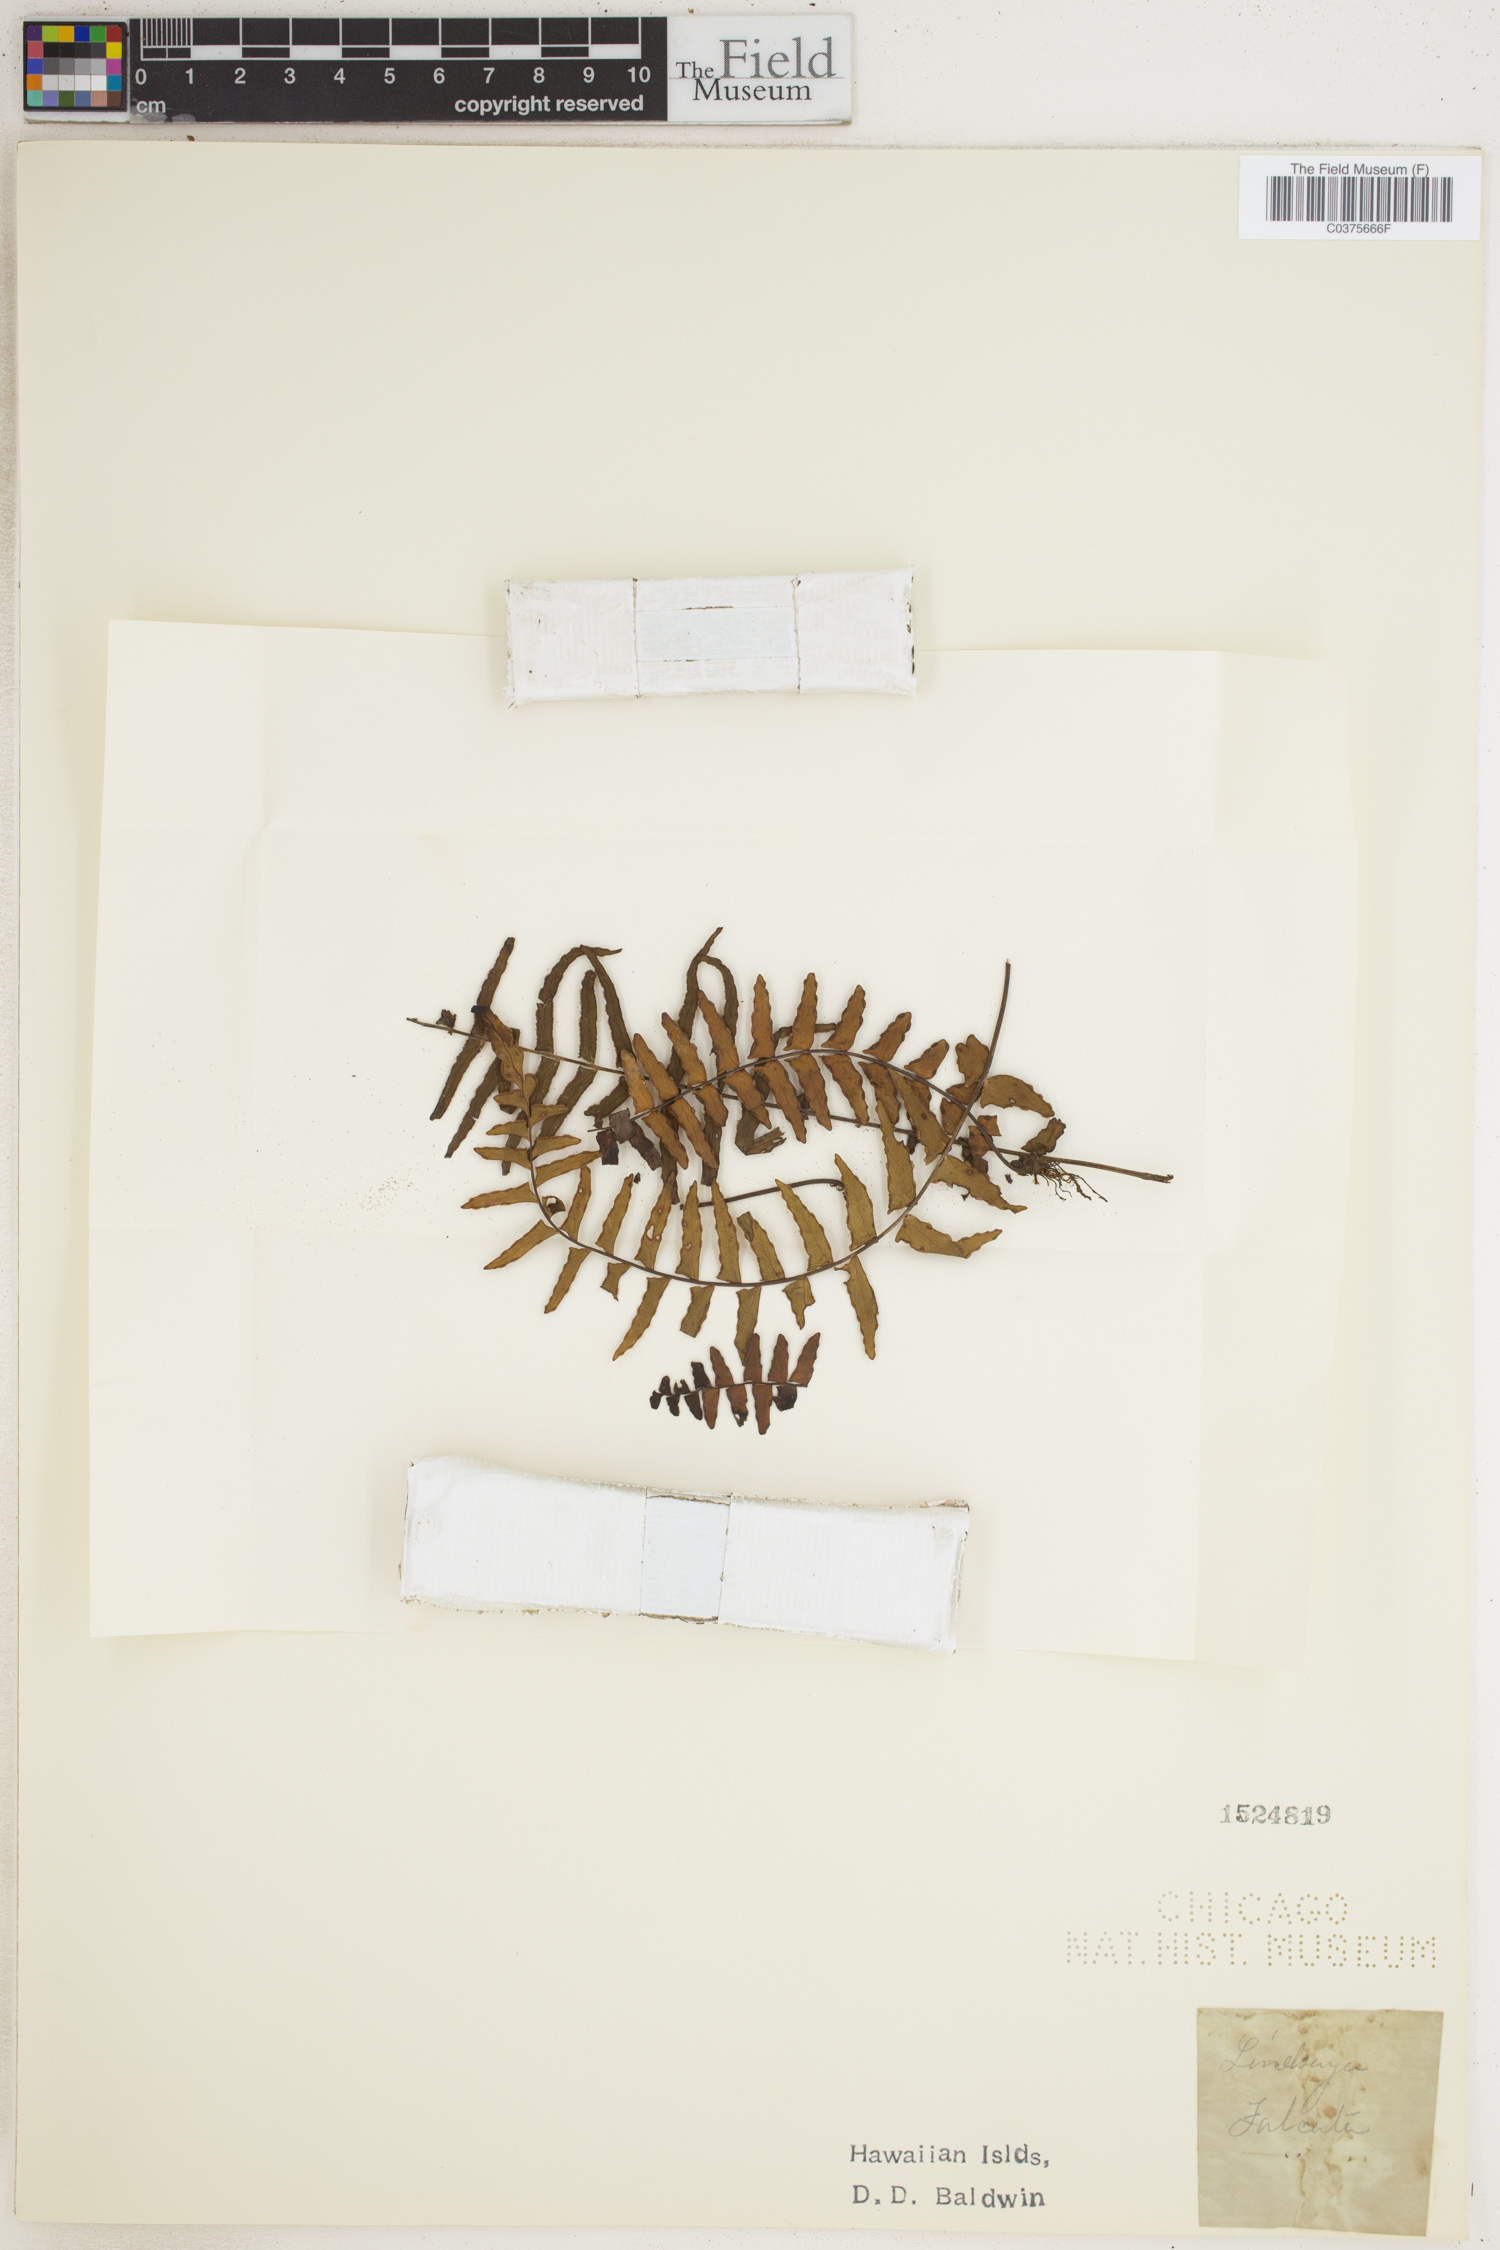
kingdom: Plantae
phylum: Tracheophyta
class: Polypodiopsida
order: Polypodiales
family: Lindsaeaceae
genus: Lindsaea
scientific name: Lindsaea falcata
